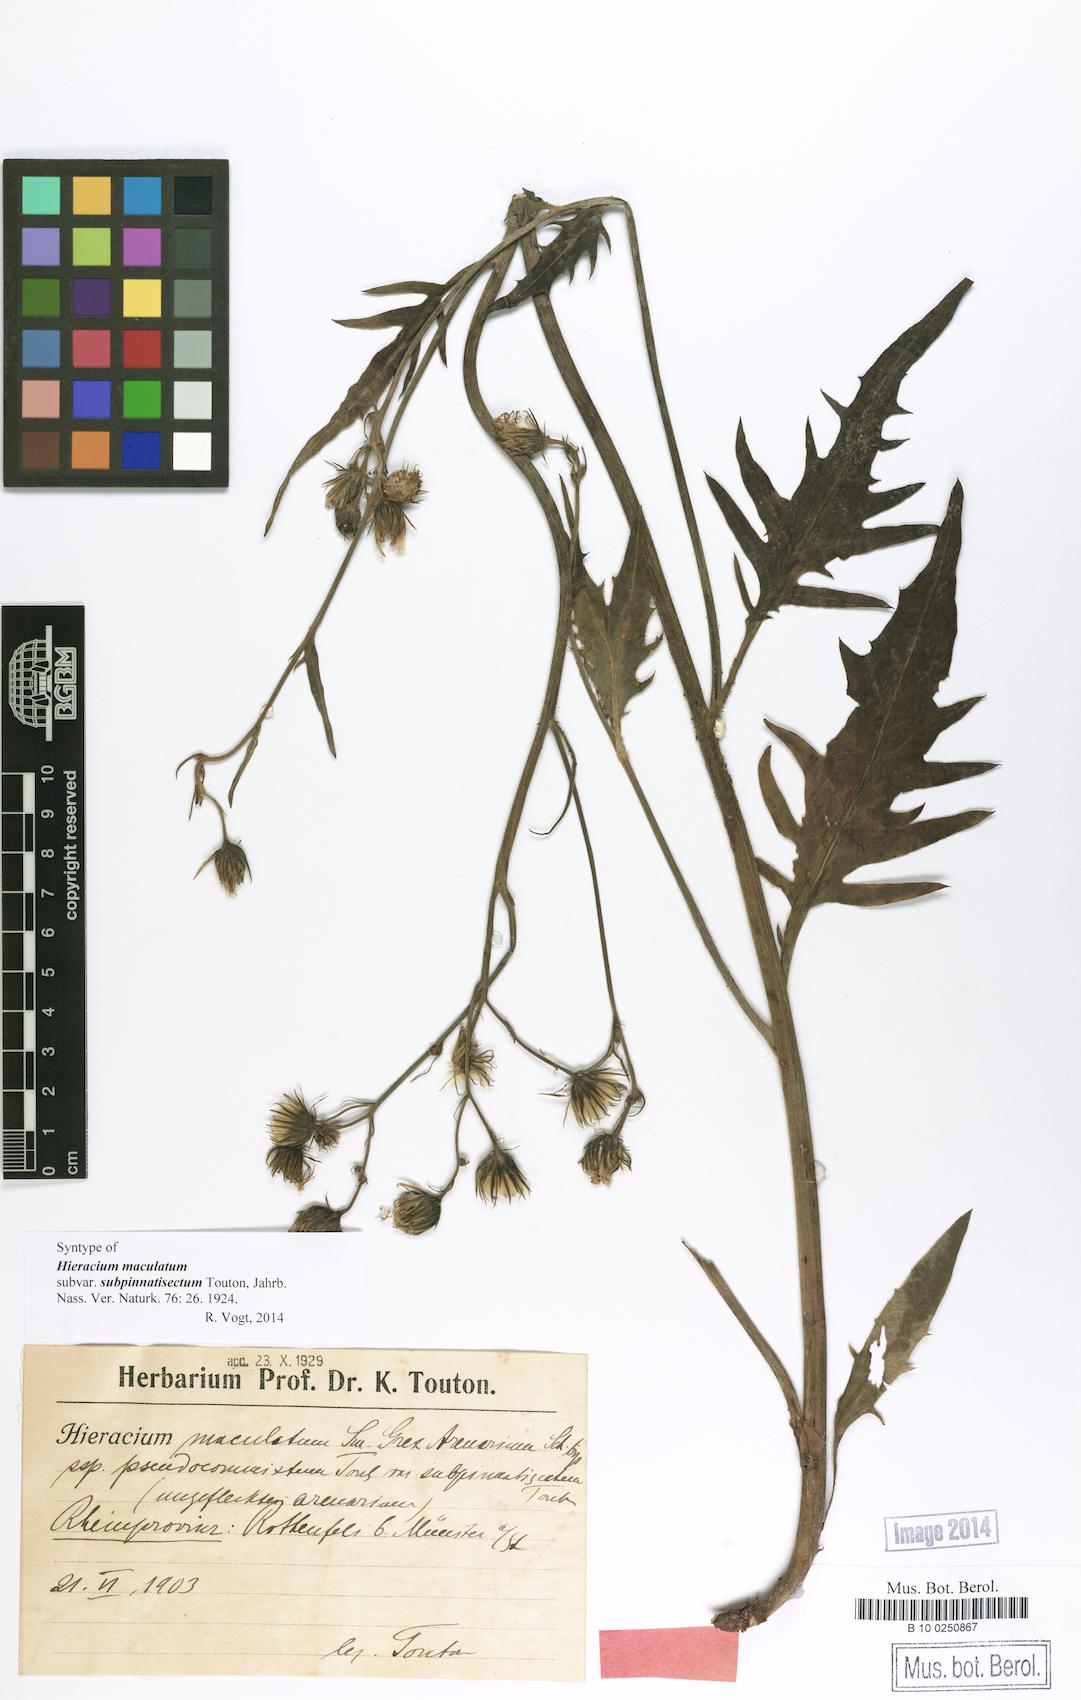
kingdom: Plantae
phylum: Tracheophyta
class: Magnoliopsida
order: Asterales
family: Asteraceae
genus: Hieracium
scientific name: Hieracium maculatum
